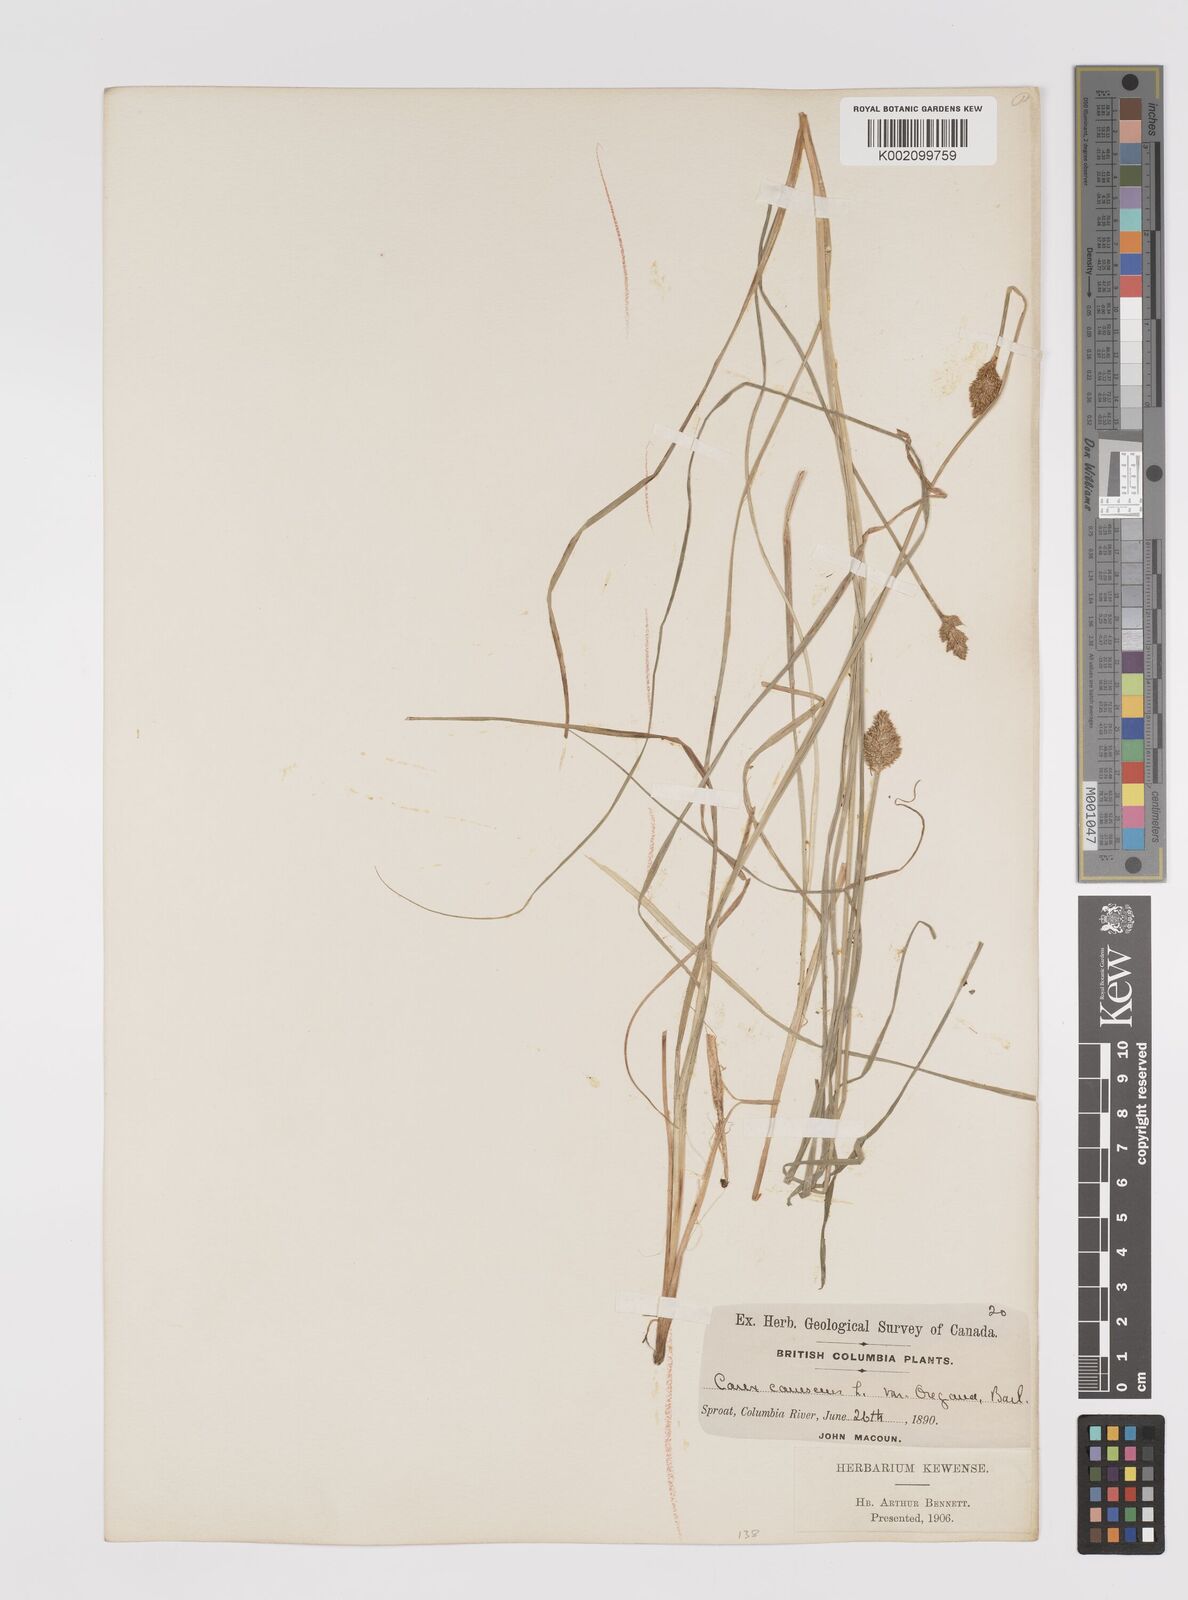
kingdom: Plantae
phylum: Tracheophyta
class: Liliopsida
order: Poales
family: Cyperaceae
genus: Carex
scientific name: Carex curta
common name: White sedge
